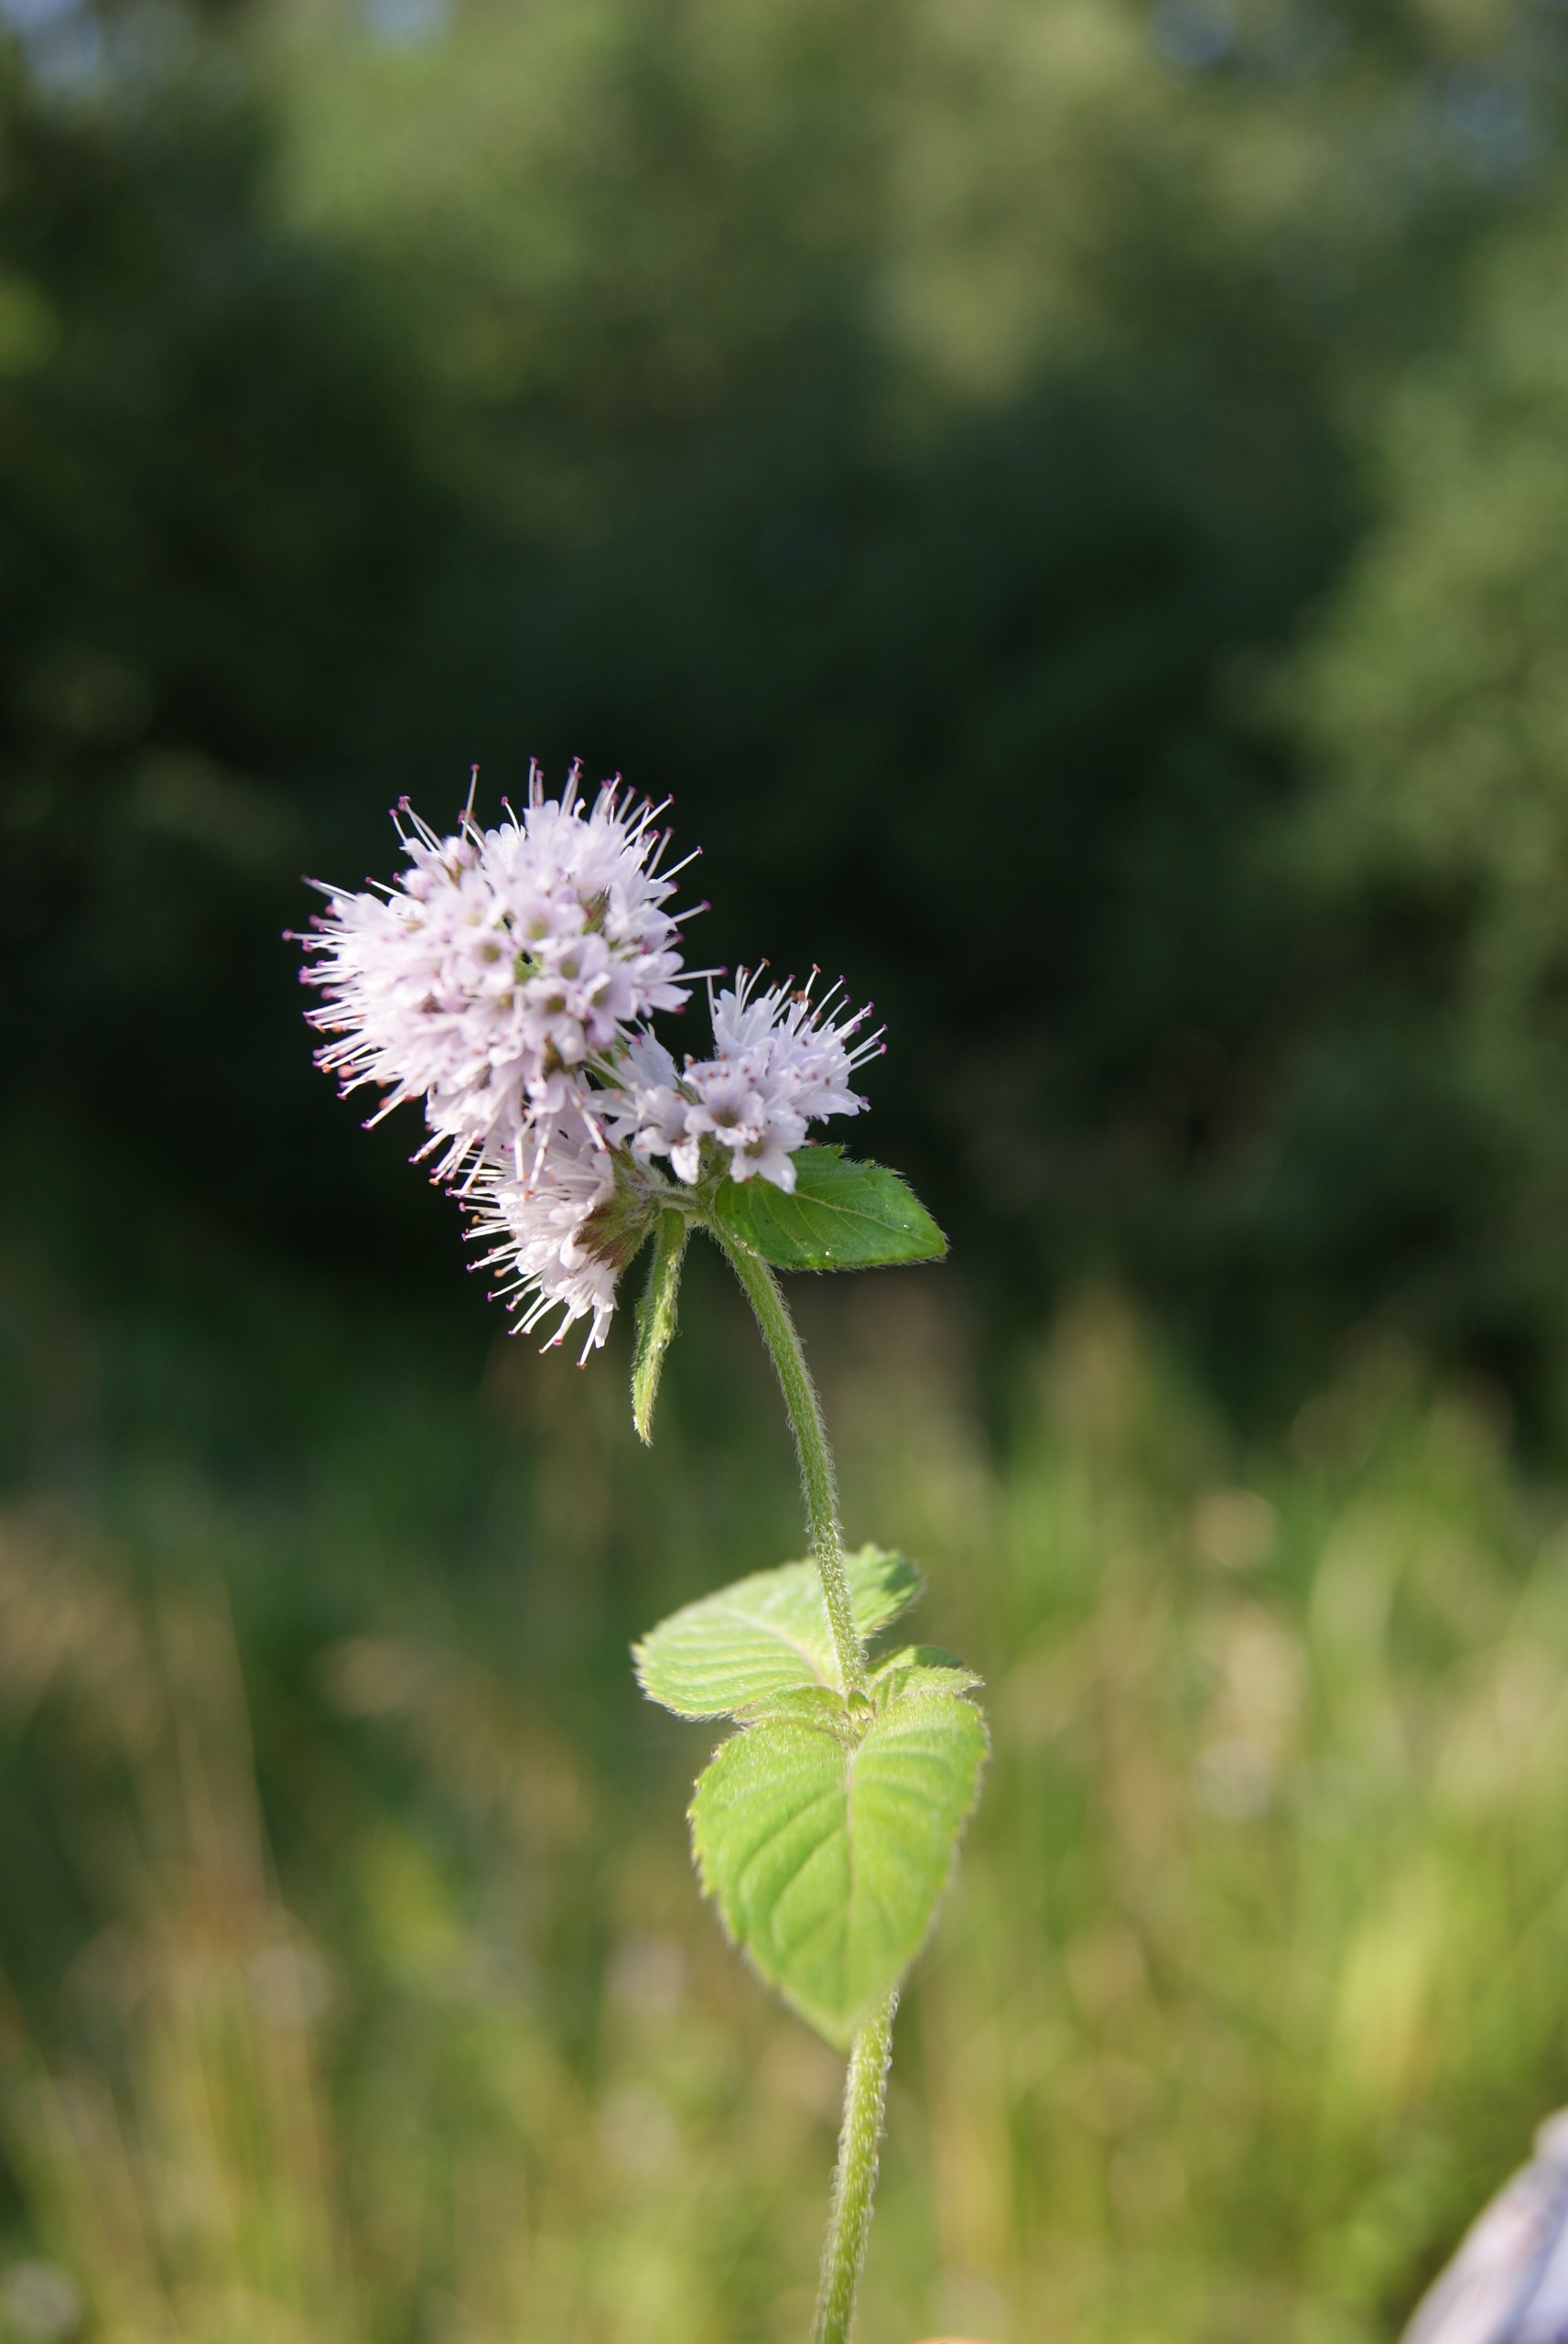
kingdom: Plantae
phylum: Tracheophyta
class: Magnoliopsida
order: Lamiales
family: Lamiaceae
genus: Mentha
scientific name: Mentha aquatica
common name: Vand-mynte
